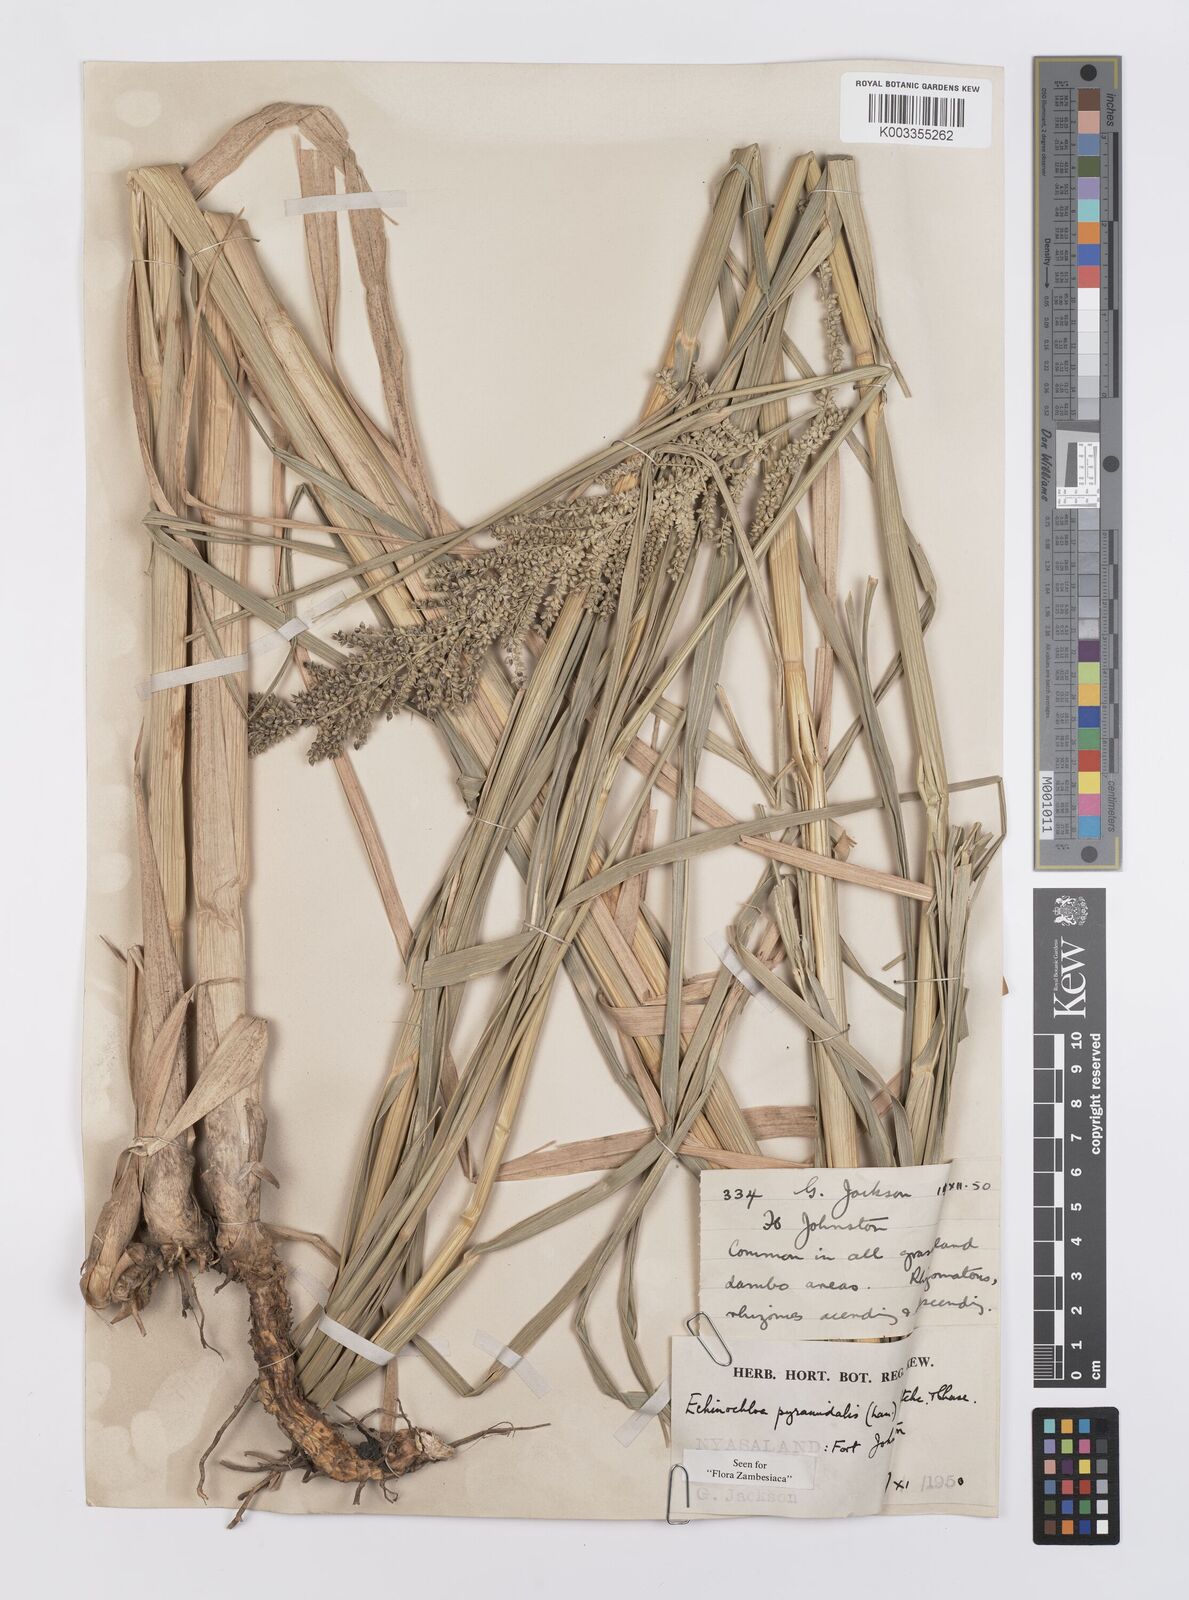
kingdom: Plantae
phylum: Tracheophyta
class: Liliopsida
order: Poales
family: Poaceae
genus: Echinochloa
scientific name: Echinochloa pyramidalis
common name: Antelope grass
